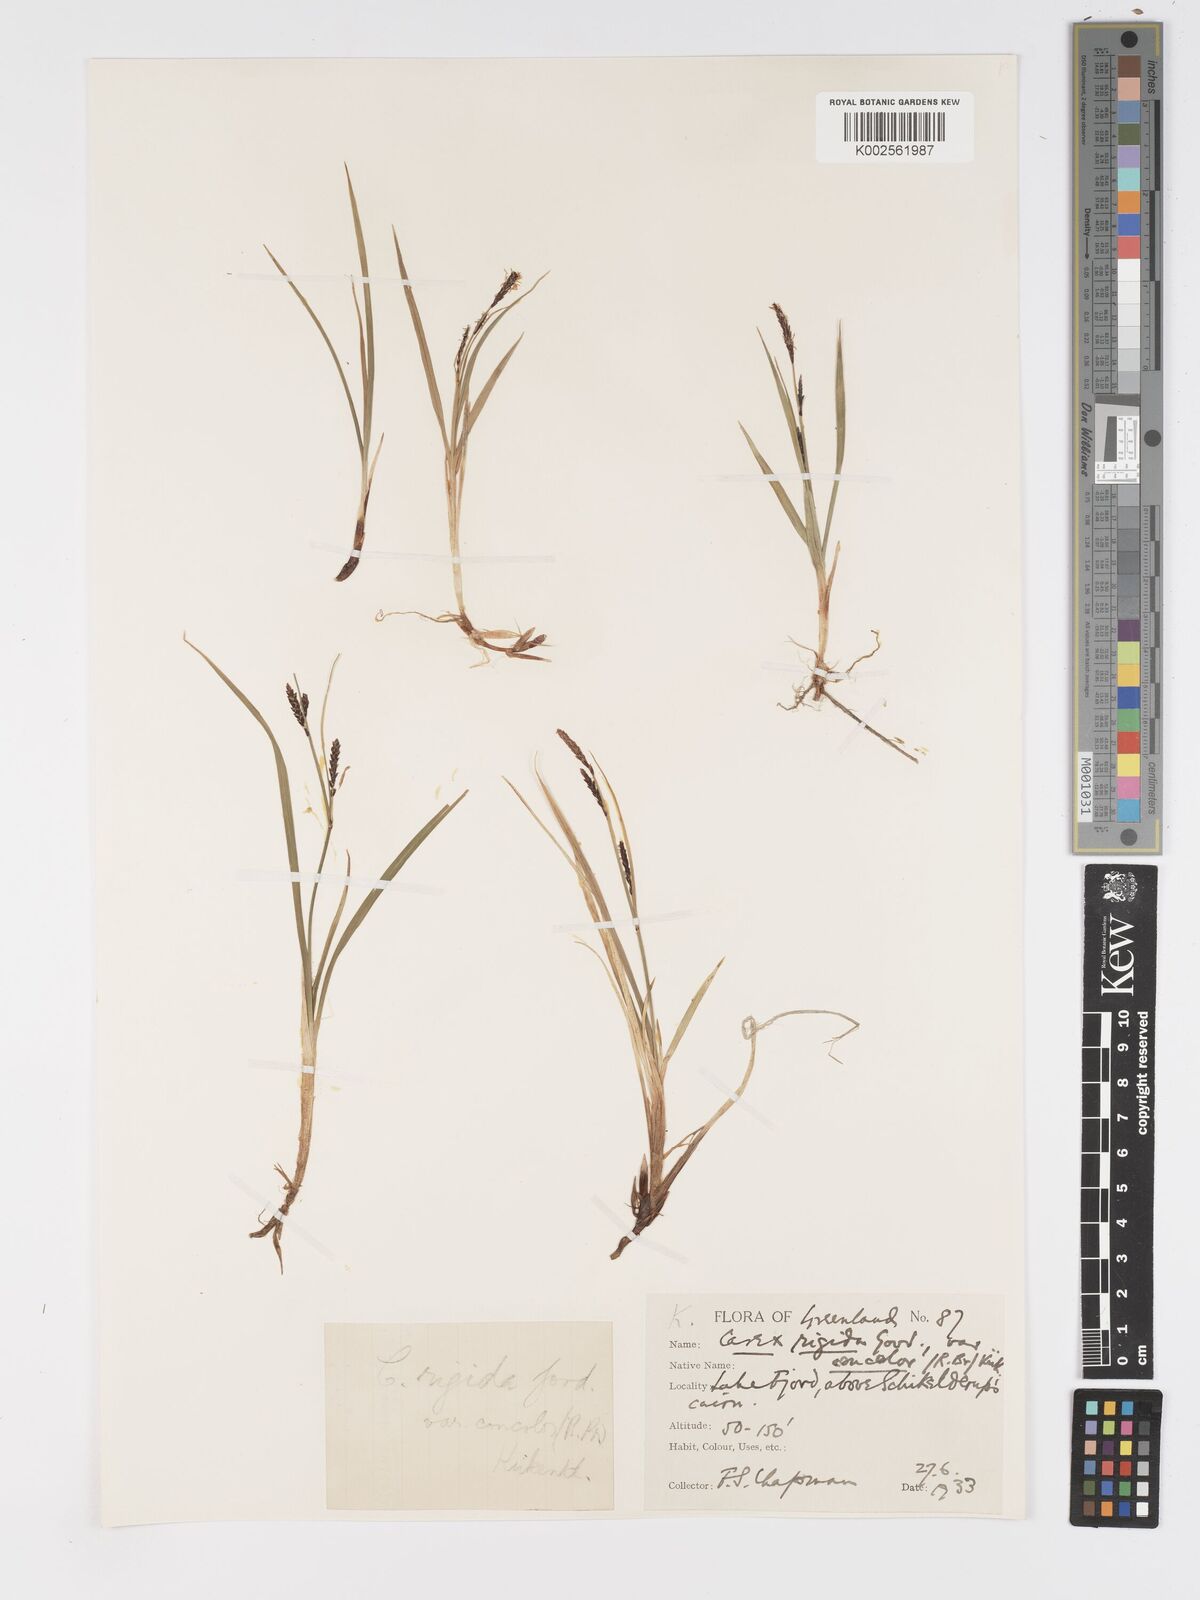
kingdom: Plantae
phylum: Tracheophyta
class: Liliopsida
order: Poales
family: Cyperaceae
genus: Carex
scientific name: Carex bigelowii
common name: Stiff sedge
